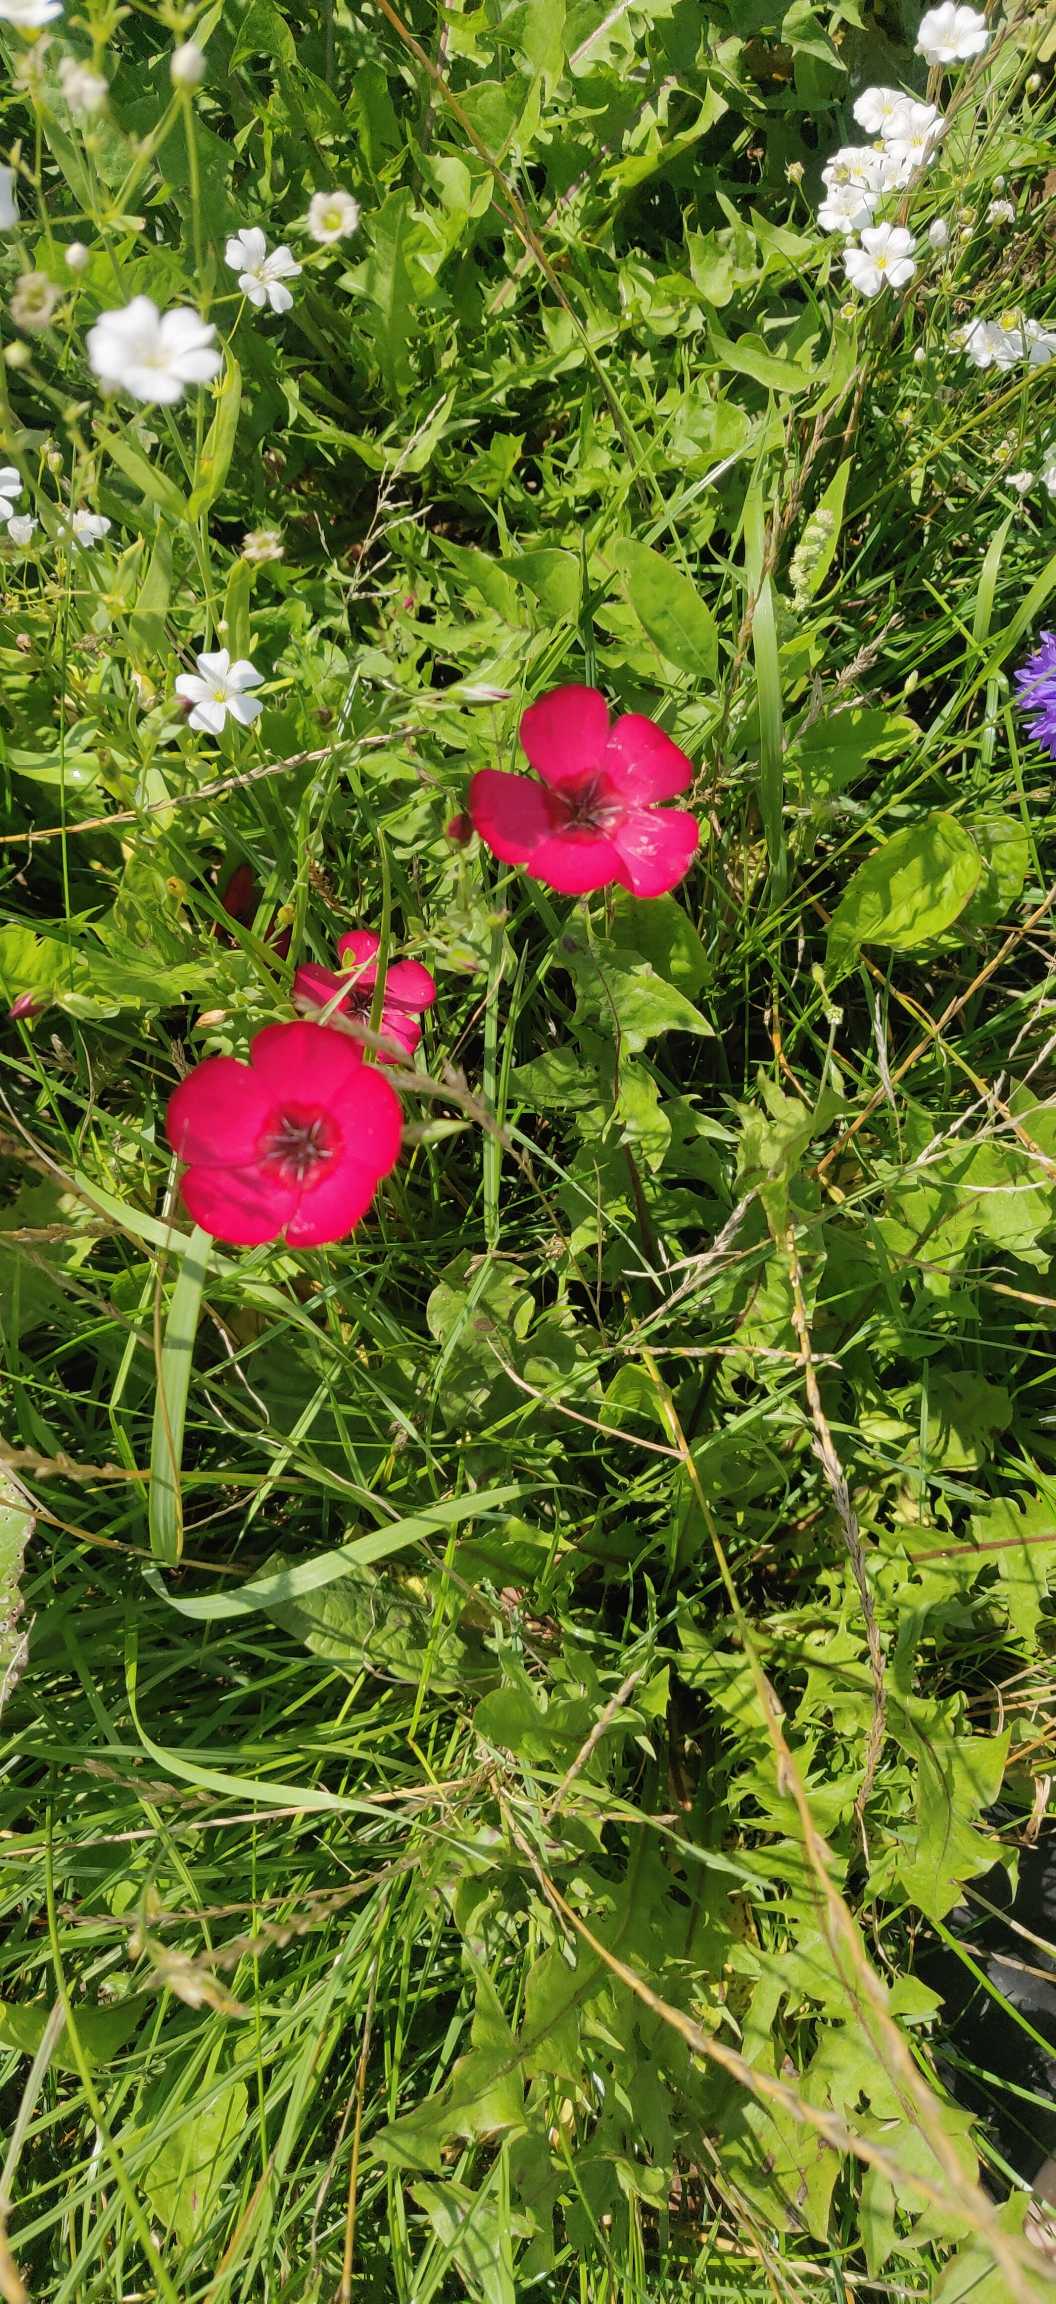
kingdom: Plantae
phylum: Tracheophyta
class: Magnoliopsida
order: Malpighiales
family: Linaceae
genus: Linum
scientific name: Linum grandiflorum
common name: Rød hør
